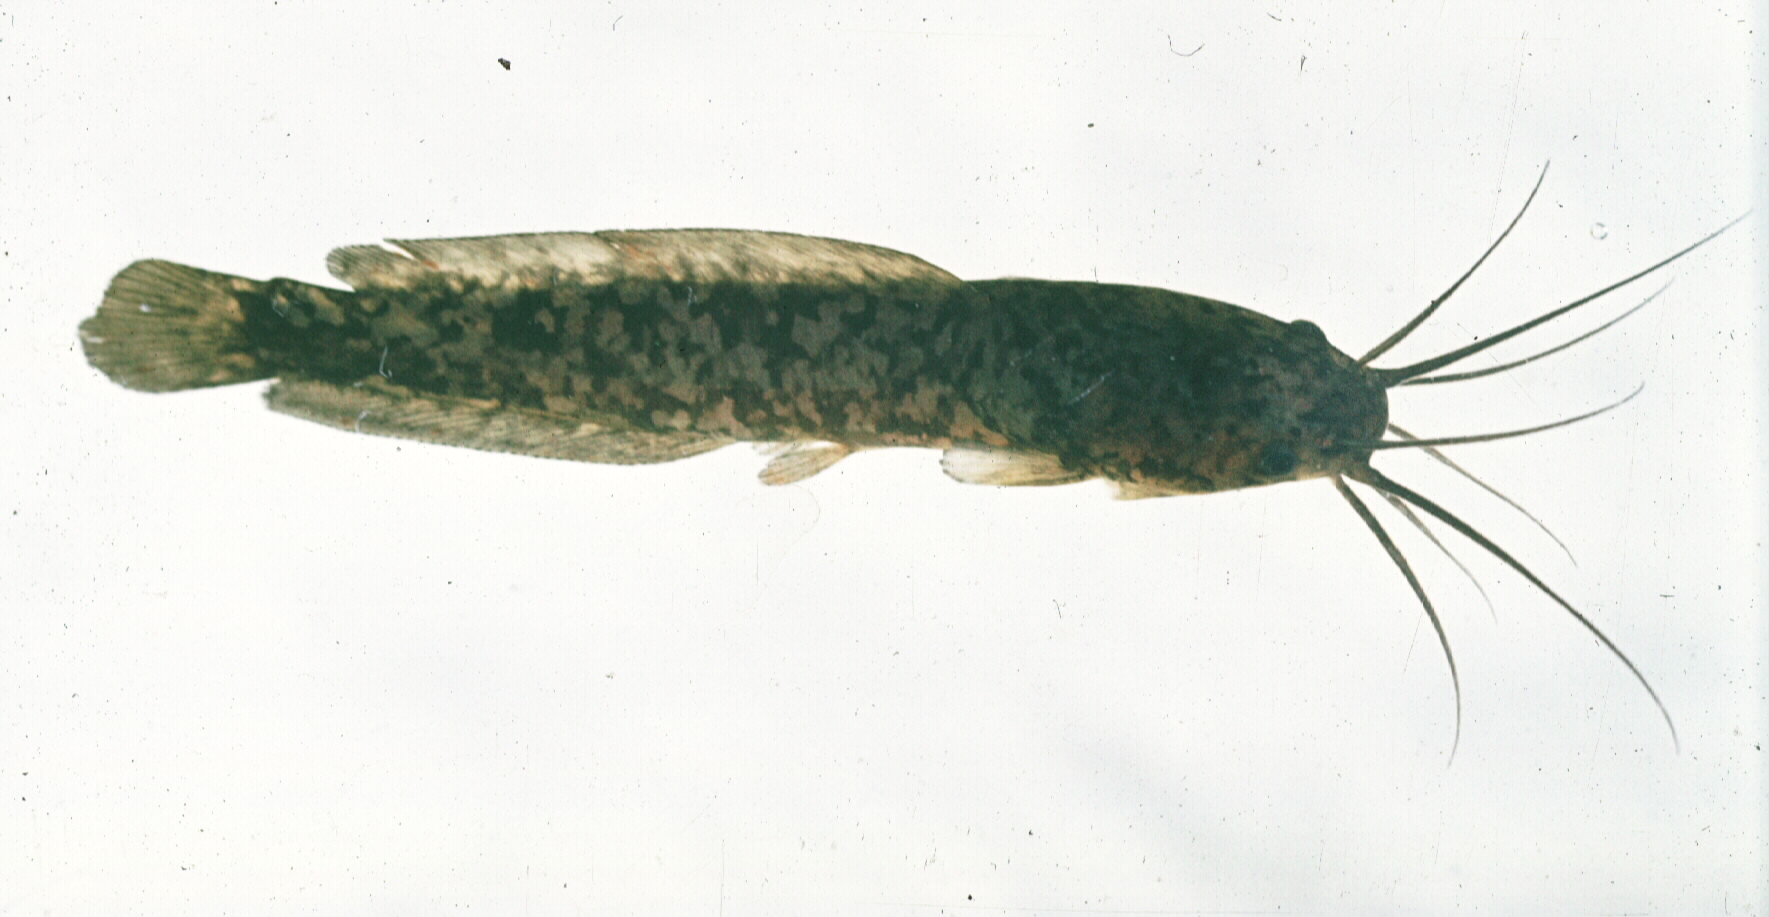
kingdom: Animalia
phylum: Chordata
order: Siluriformes
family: Clariidae
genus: Clarias
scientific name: Clarias ngamensis
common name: Blunt-toothed african catfish
